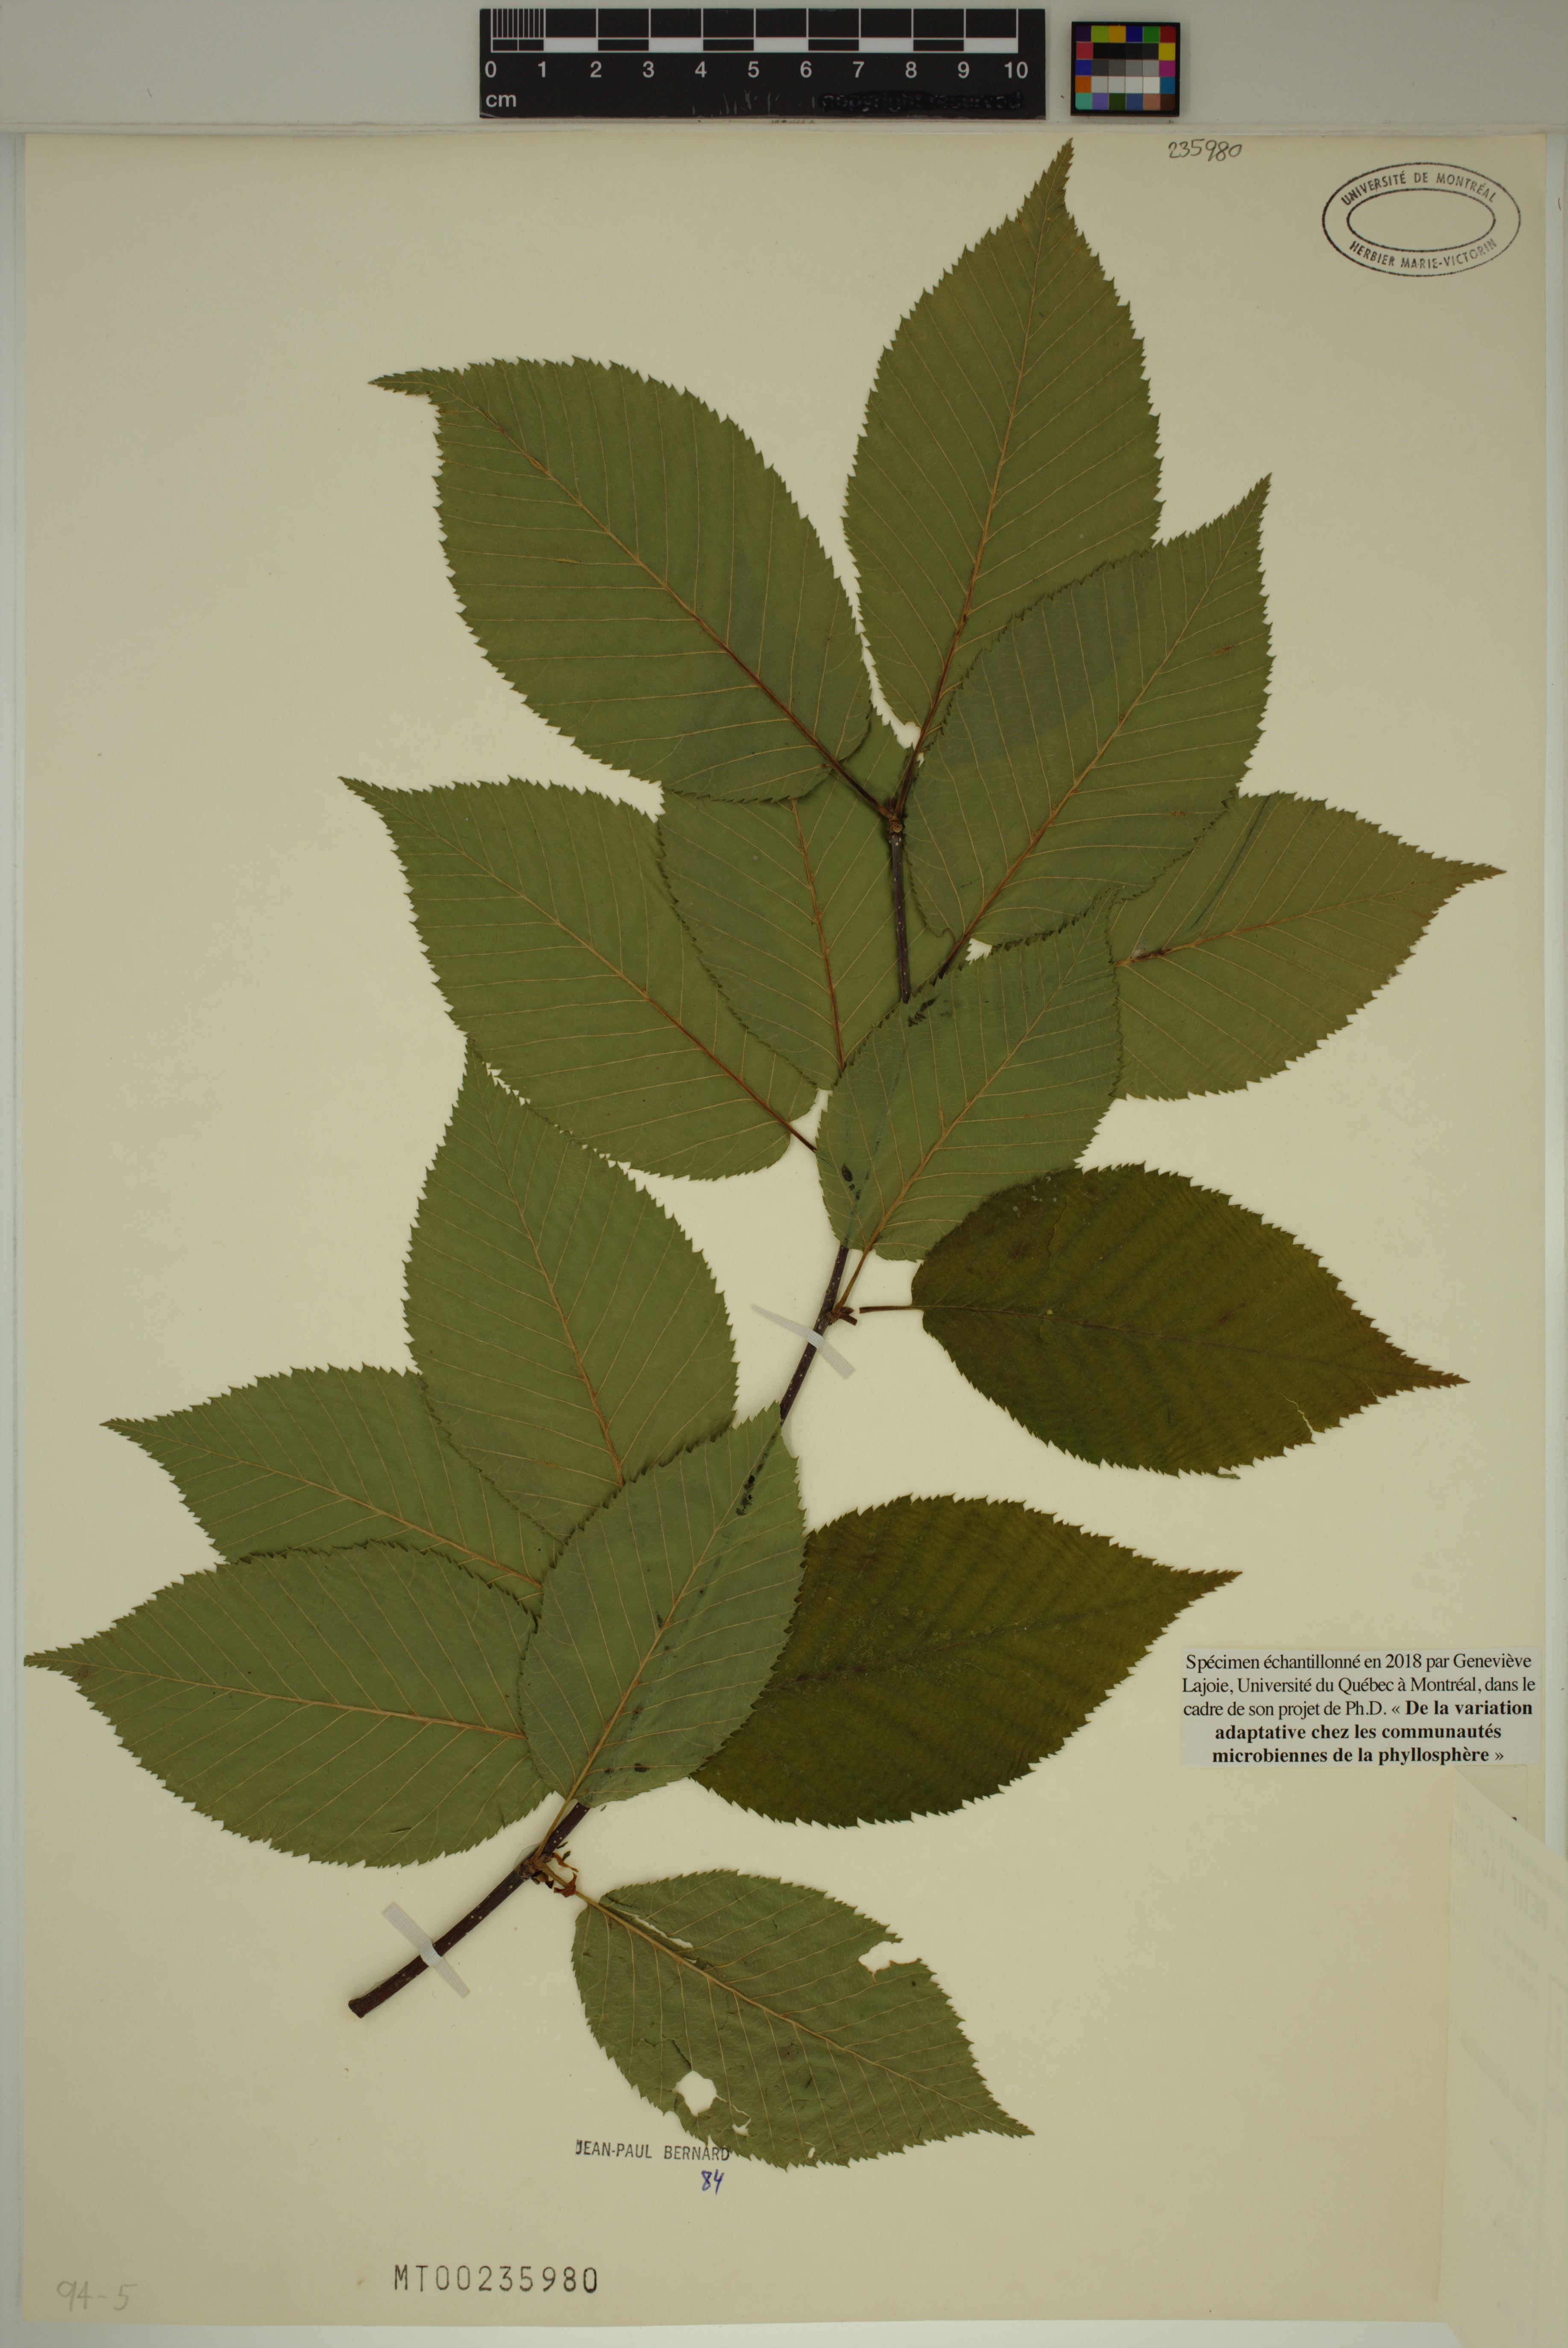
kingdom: Plantae
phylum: Tracheophyta
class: Magnoliopsida
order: Fagales
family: Betulaceae
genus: Betula
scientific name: Betula alleghaniensis
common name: Yellow birch
